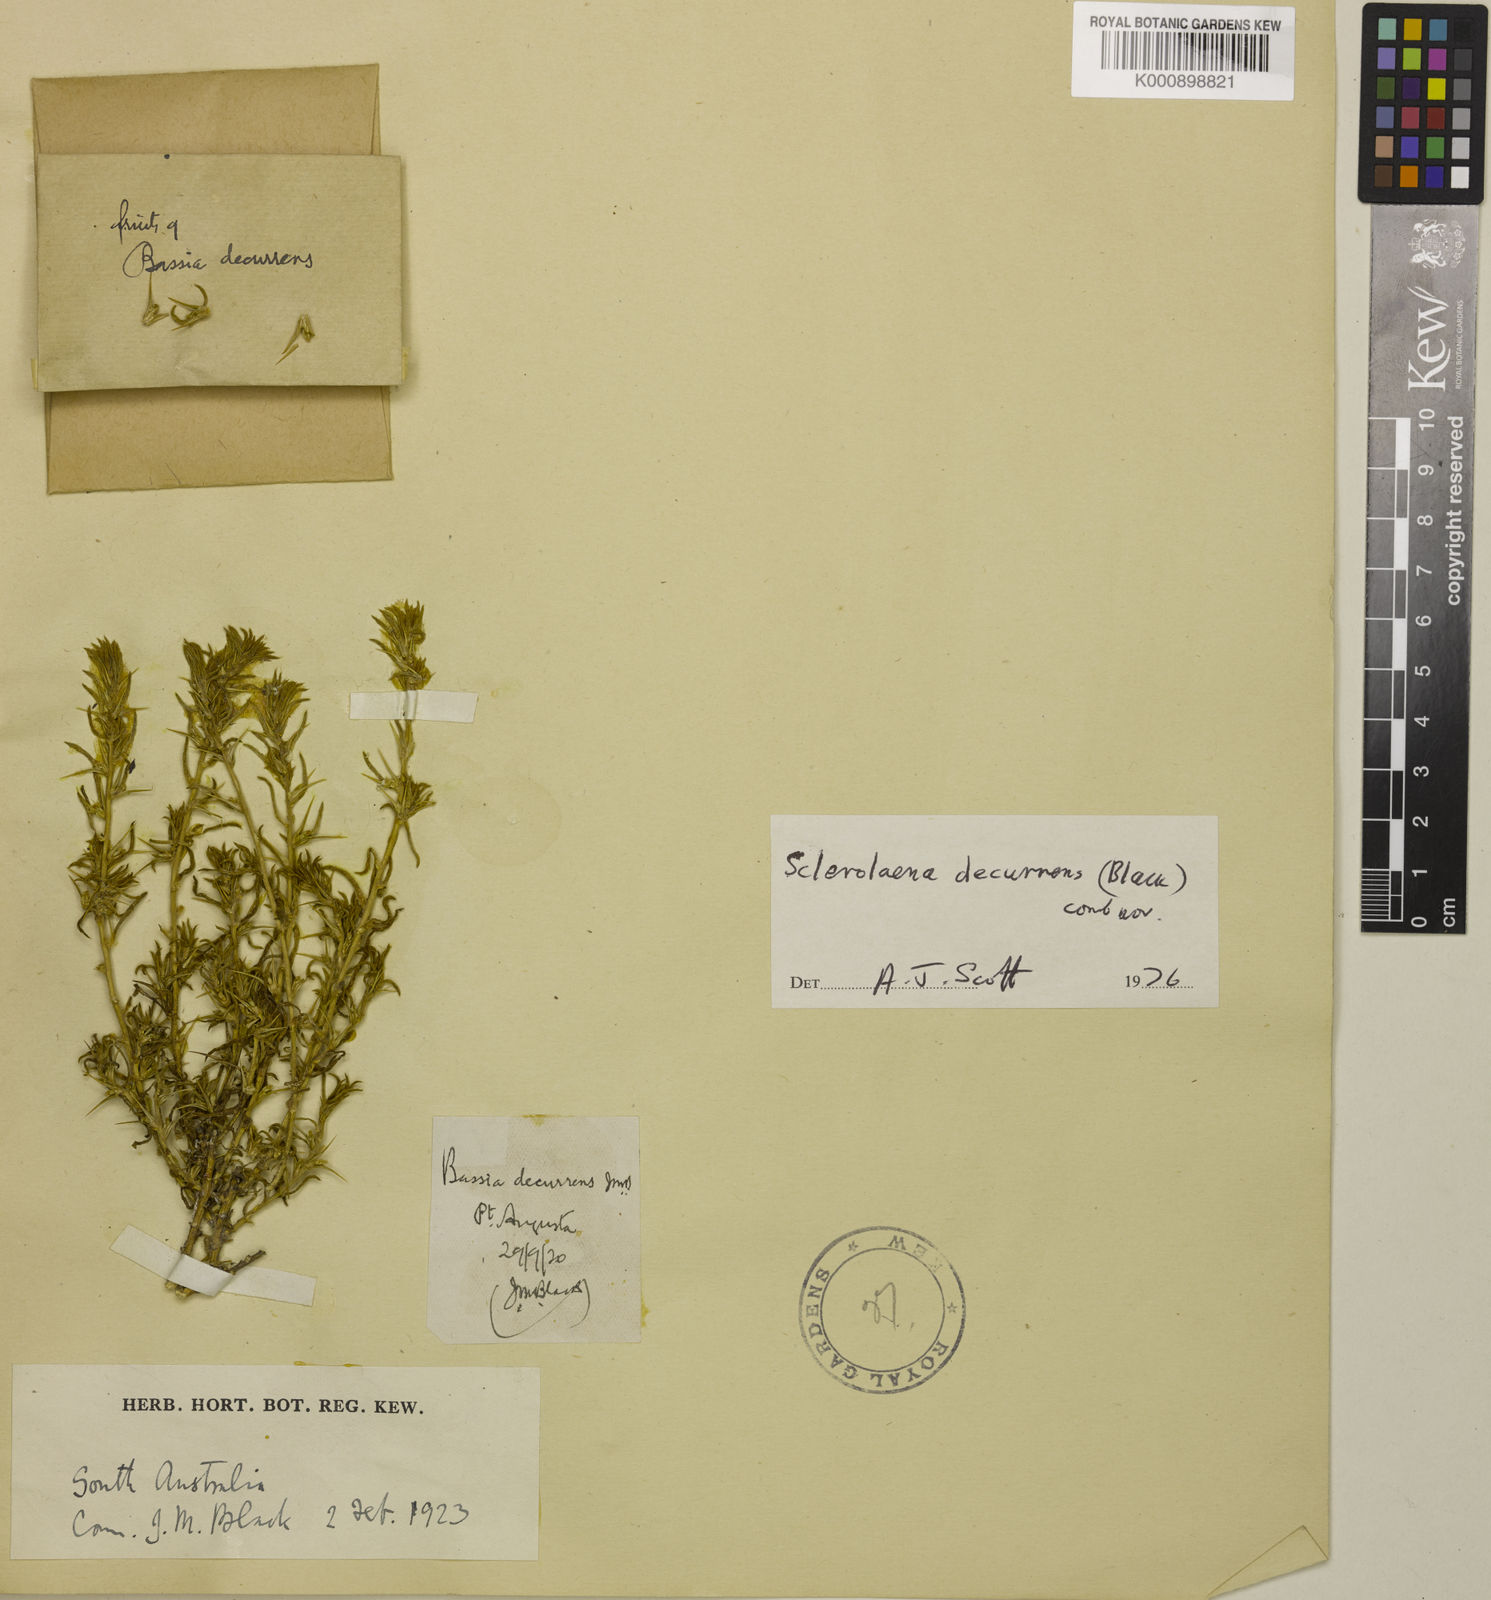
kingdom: Plantae
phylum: Tracheophyta
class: Magnoliopsida
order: Caryophyllales
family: Amaranthaceae
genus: Sclerolaena
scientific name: Sclerolaena decurrens
